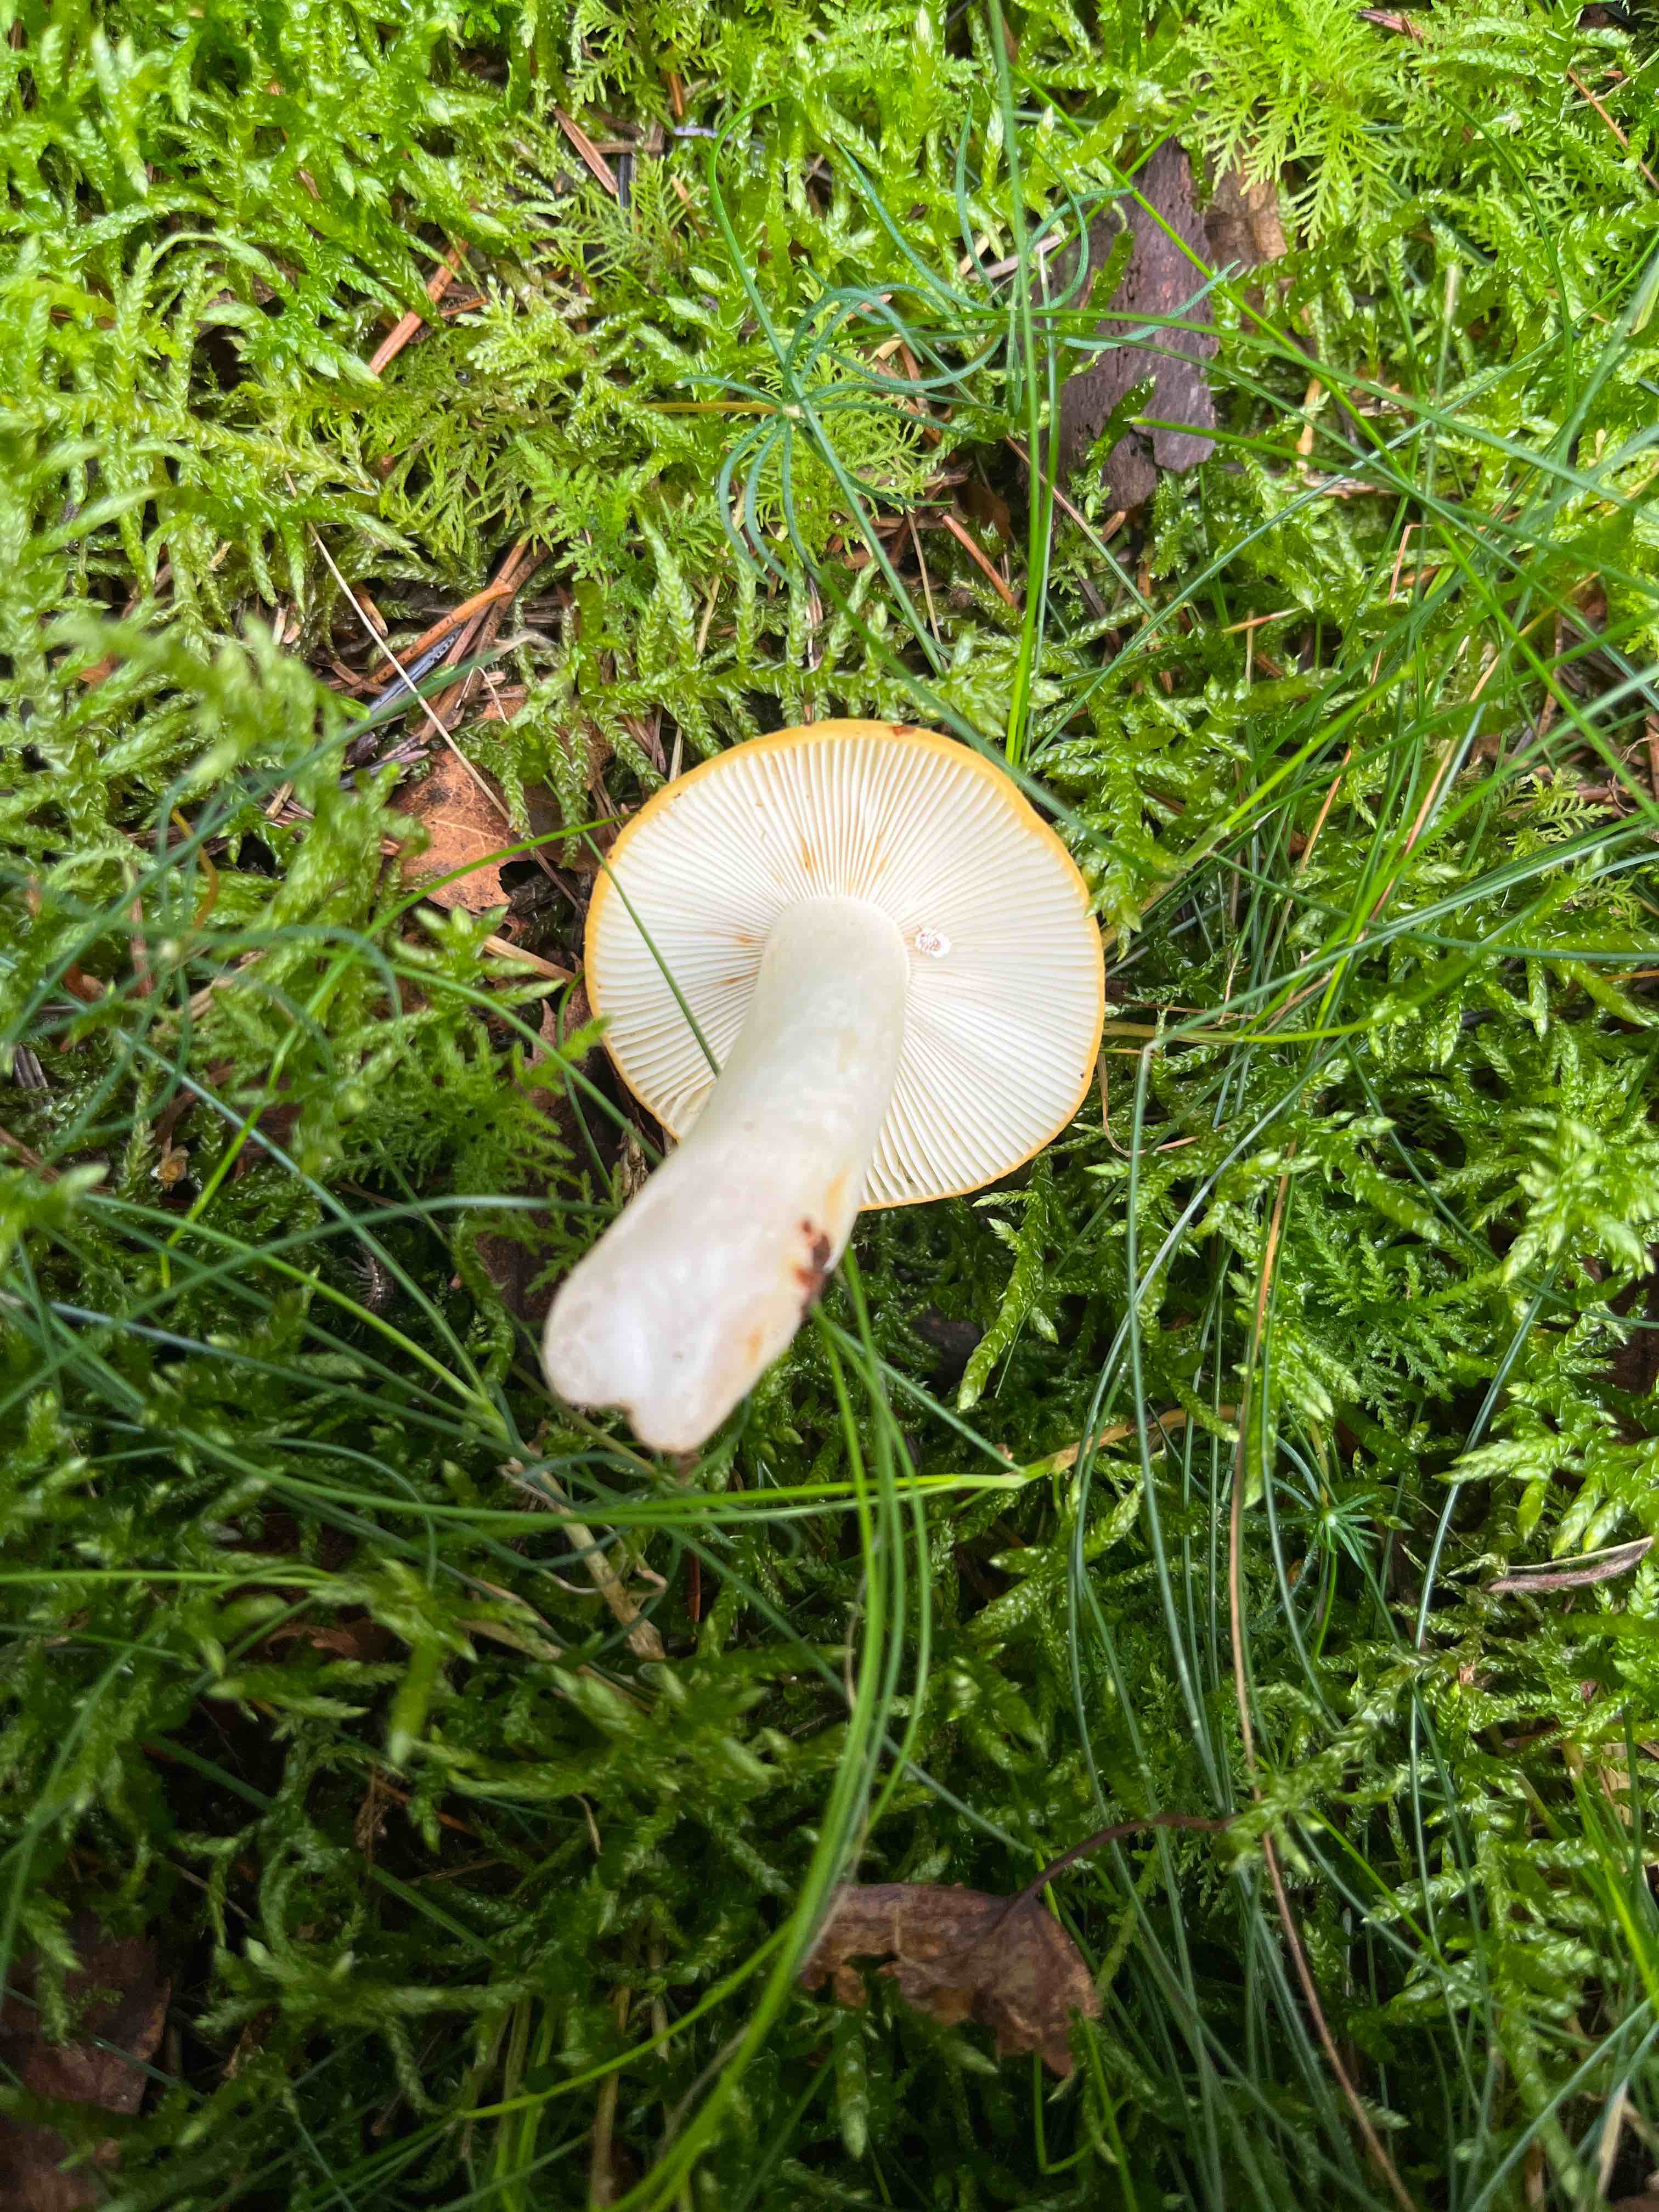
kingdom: Fungi
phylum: Basidiomycota
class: Agaricomycetes
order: Russulales
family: Russulaceae
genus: Russula
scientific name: Russula ochroleuca
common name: okkergul skørhat
